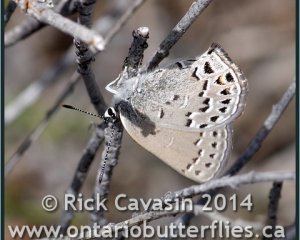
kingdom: Animalia
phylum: Arthropoda
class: Insecta
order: Lepidoptera
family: Lycaenidae
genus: Satyrium
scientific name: Satyrium behrii
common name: Behr's Hairstreak
